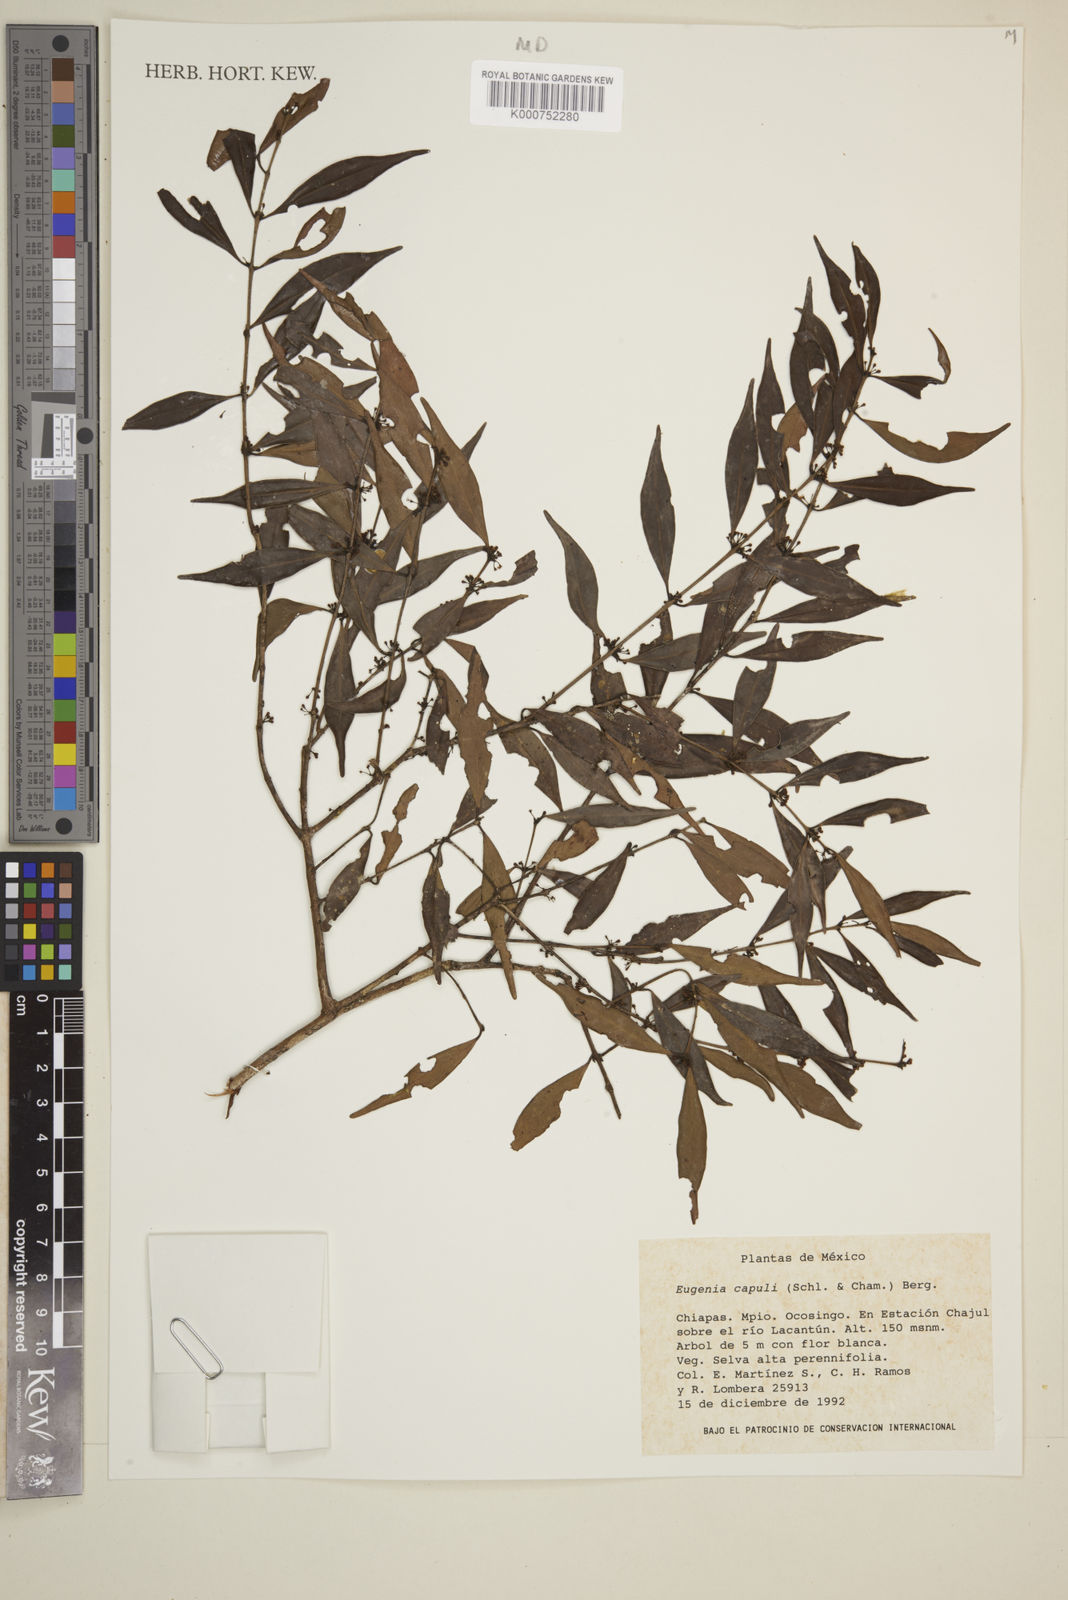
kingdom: Plantae
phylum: Tracheophyta
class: Magnoliopsida
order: Myrtales
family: Myrtaceae
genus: Eugenia
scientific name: Eugenia capuli
